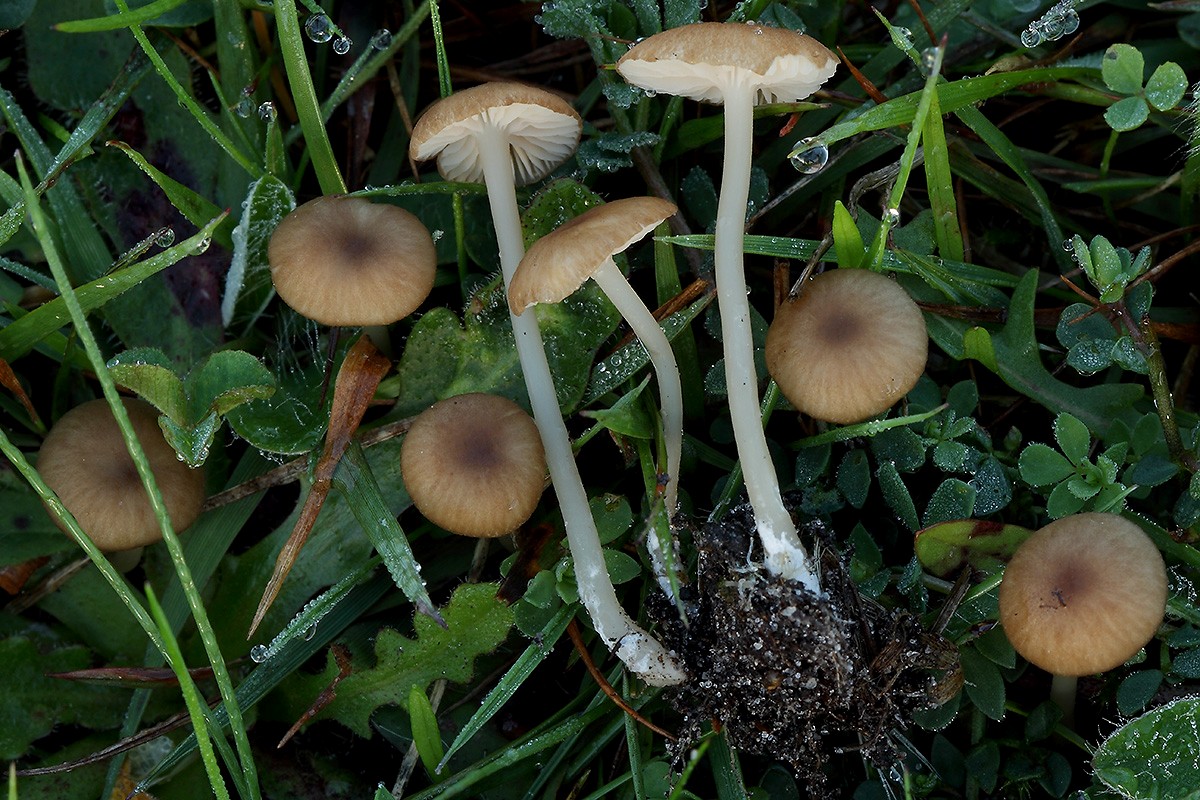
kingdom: Fungi
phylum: Basidiomycota
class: Agaricomycetes
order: Agaricales
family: Entolomataceae
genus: Entoloma
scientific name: Entoloma olivaceotinctum
